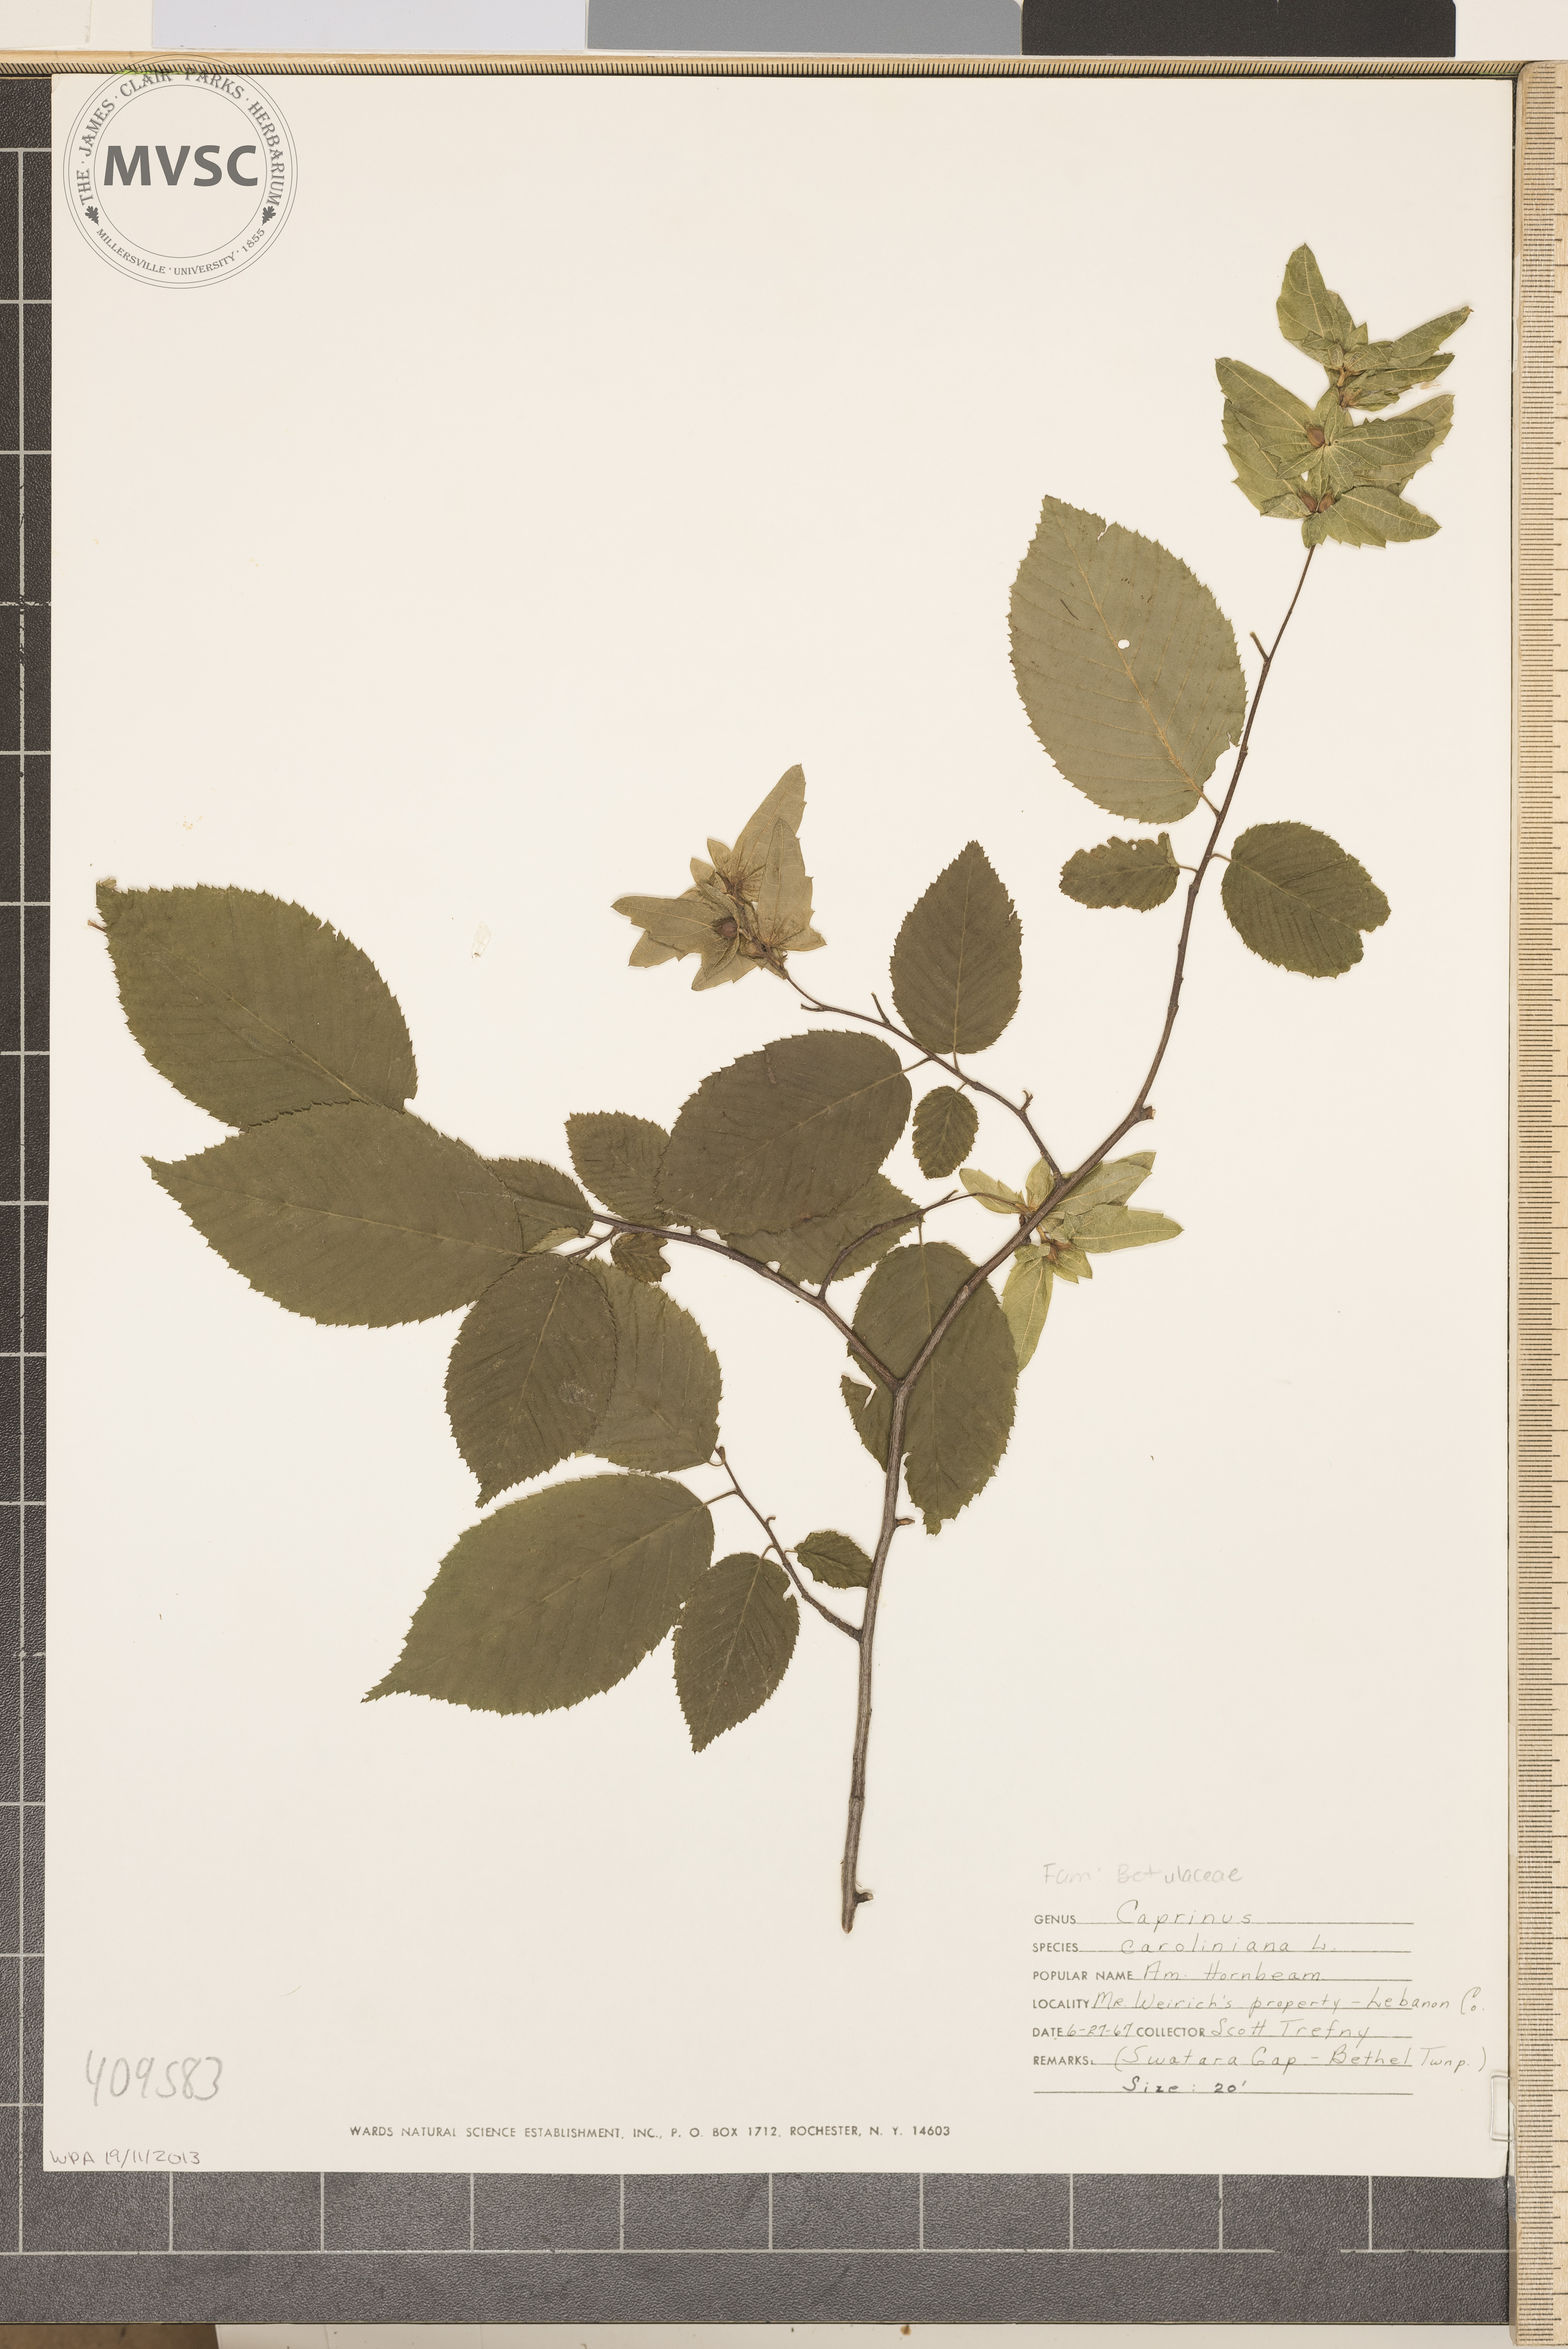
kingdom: Plantae
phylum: Tracheophyta
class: Magnoliopsida
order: Fagales
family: Betulaceae
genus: Carpinus
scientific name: Carpinus caroliniana
